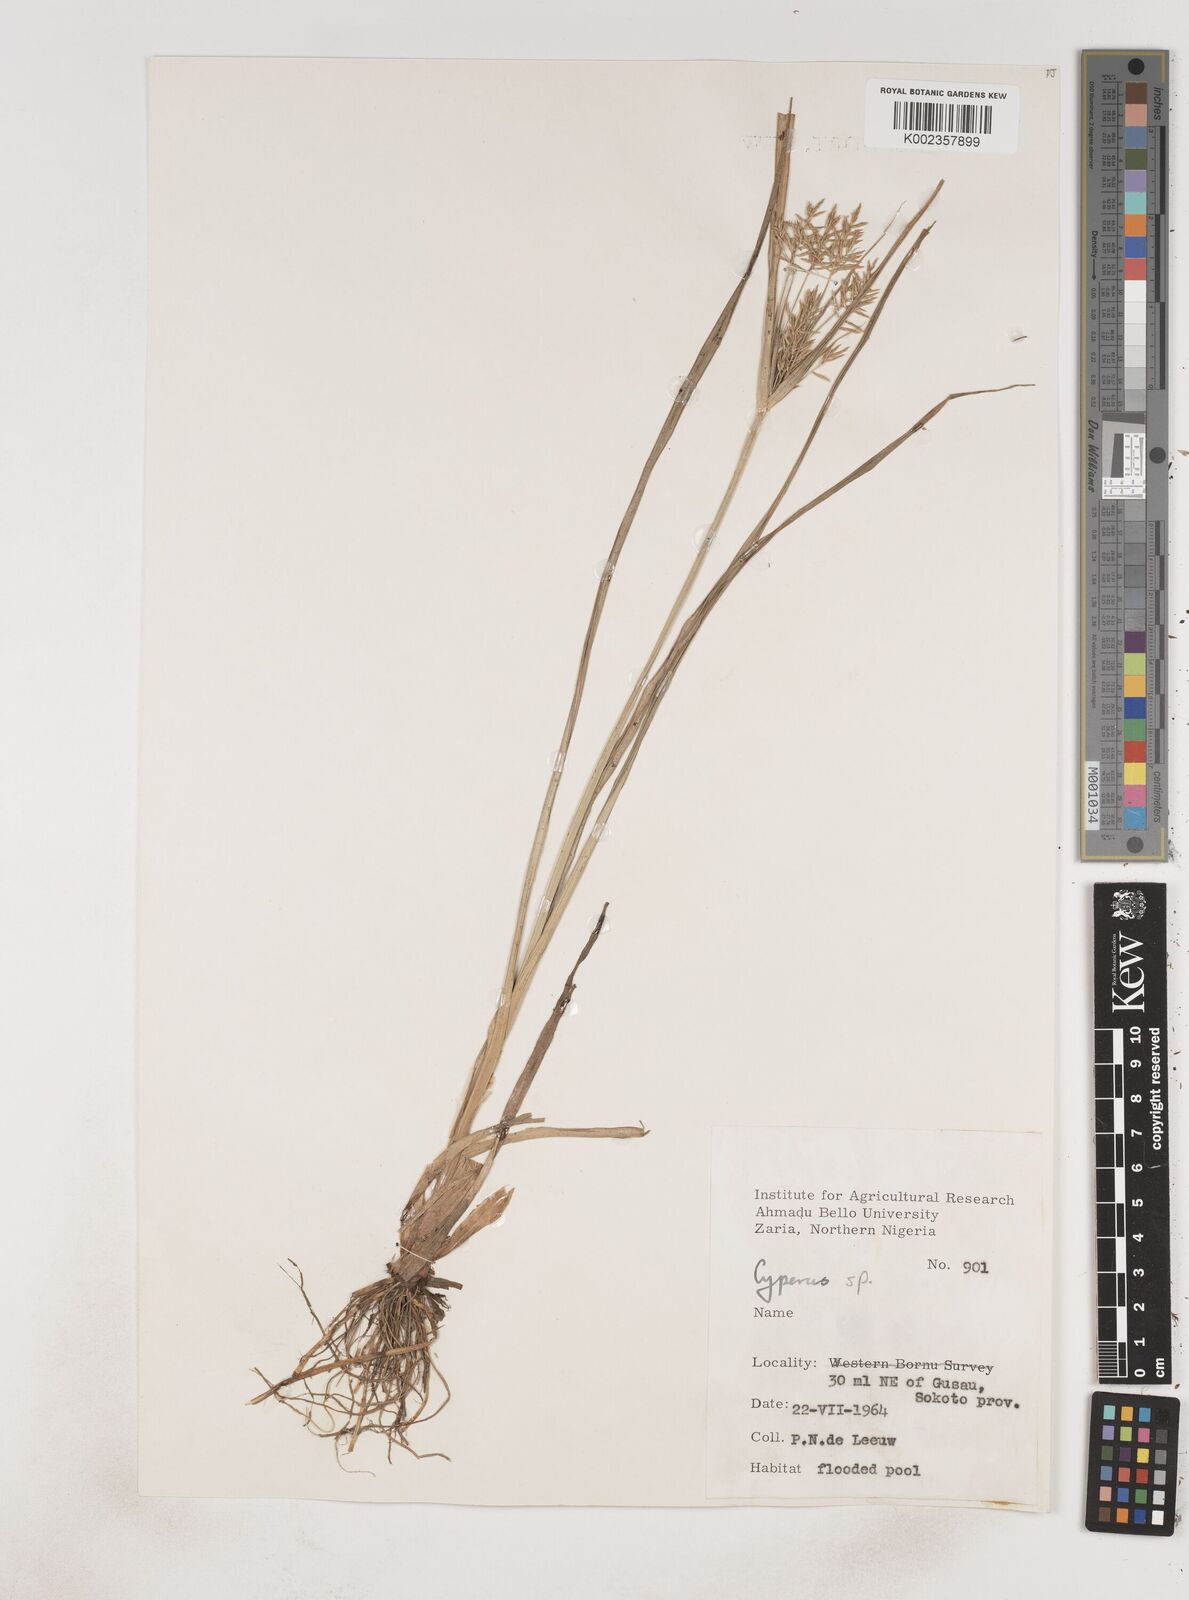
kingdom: Plantae
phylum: Tracheophyta
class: Liliopsida
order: Poales
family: Cyperaceae
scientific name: Cyperaceae
